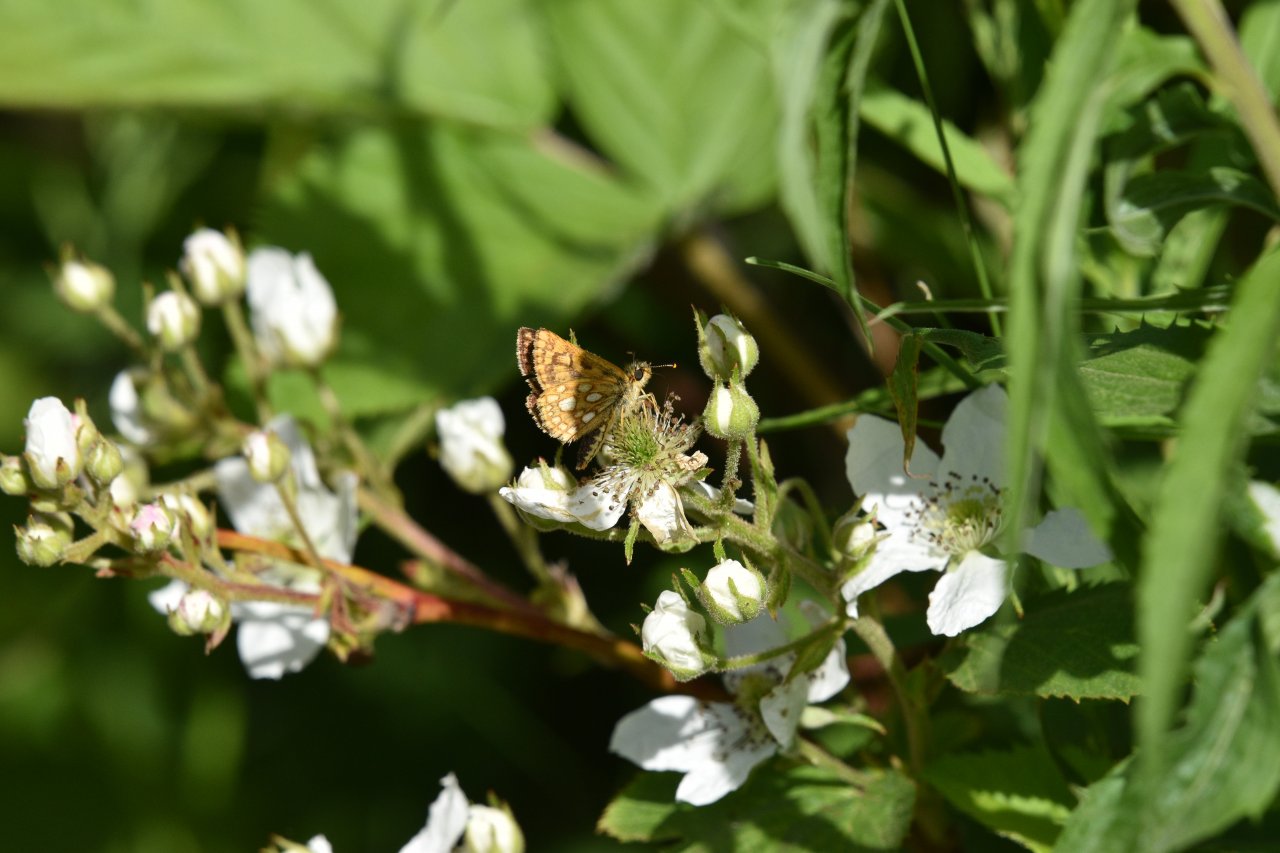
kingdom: Animalia
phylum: Arthropoda
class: Insecta
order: Lepidoptera
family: Hesperiidae
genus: Carterocephalus
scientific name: Carterocephalus palaemon
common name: Chequered Skipper
